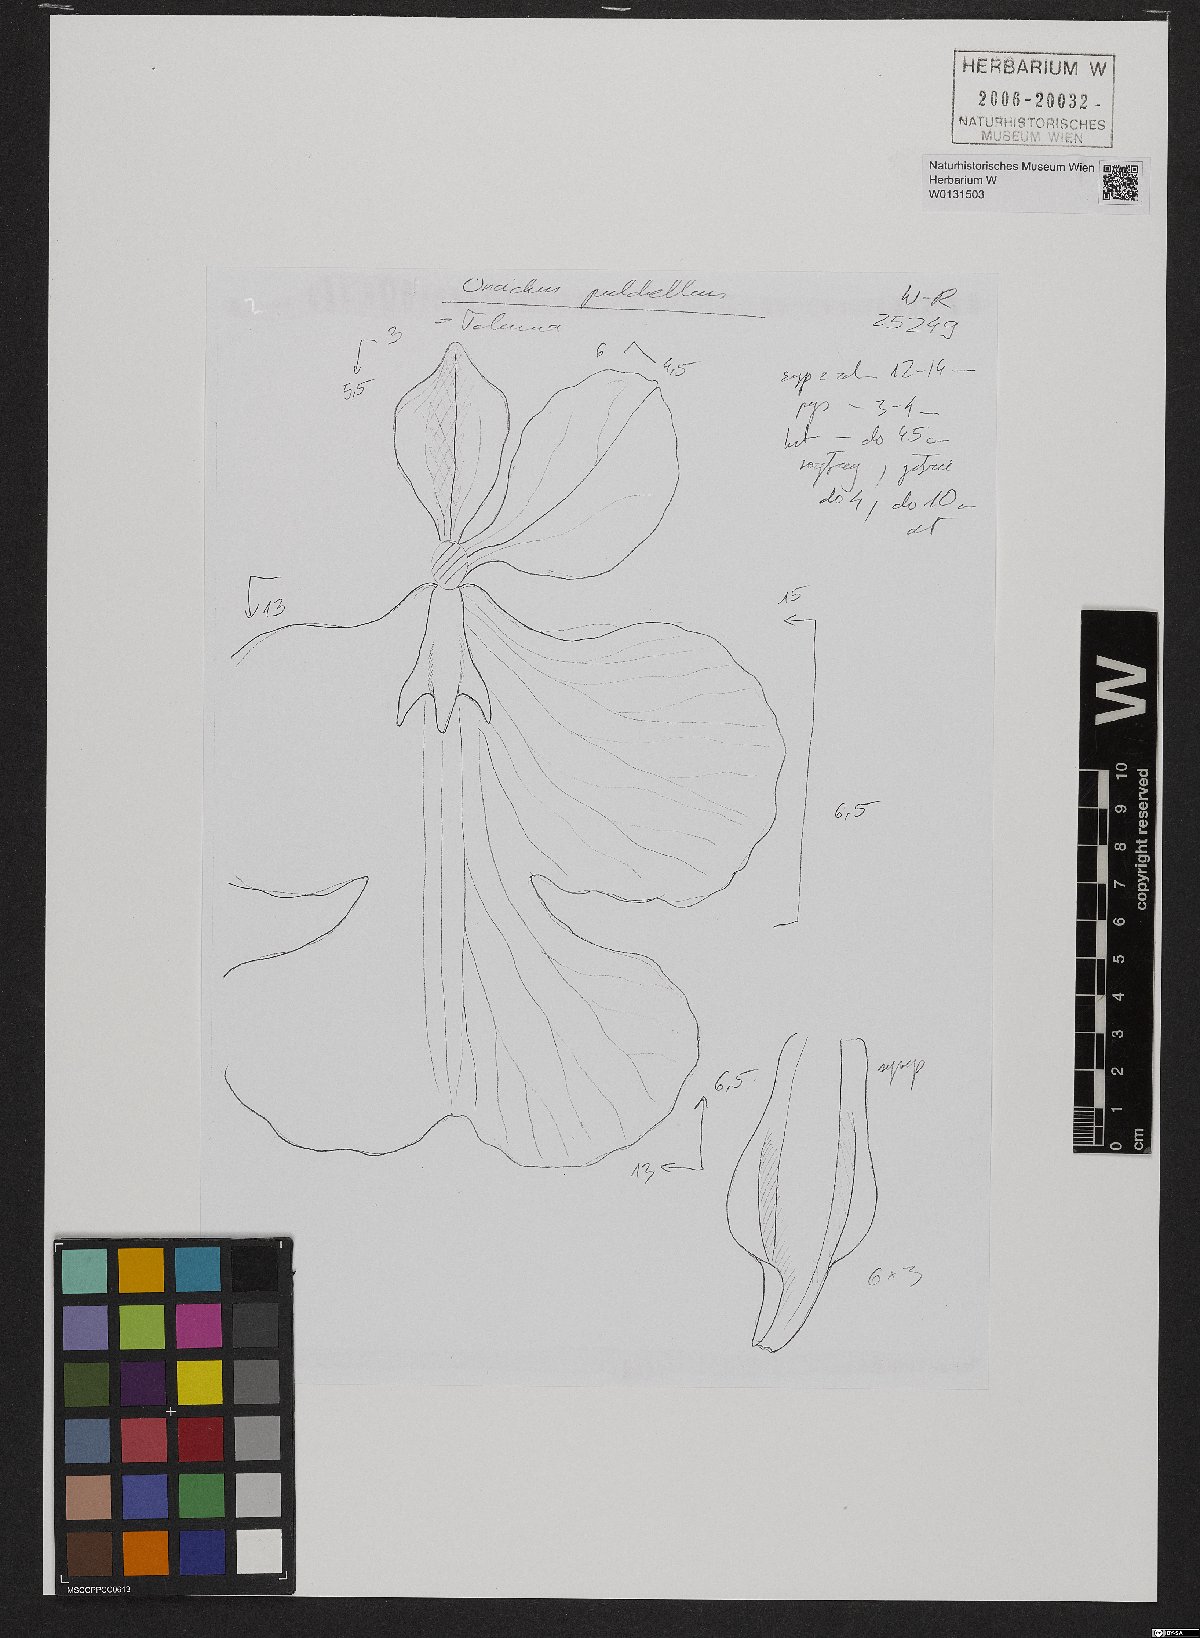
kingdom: Plantae
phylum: Tracheophyta
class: Liliopsida
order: Asparagales
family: Orchidaceae
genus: Tolumnia
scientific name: Tolumnia pulchella
